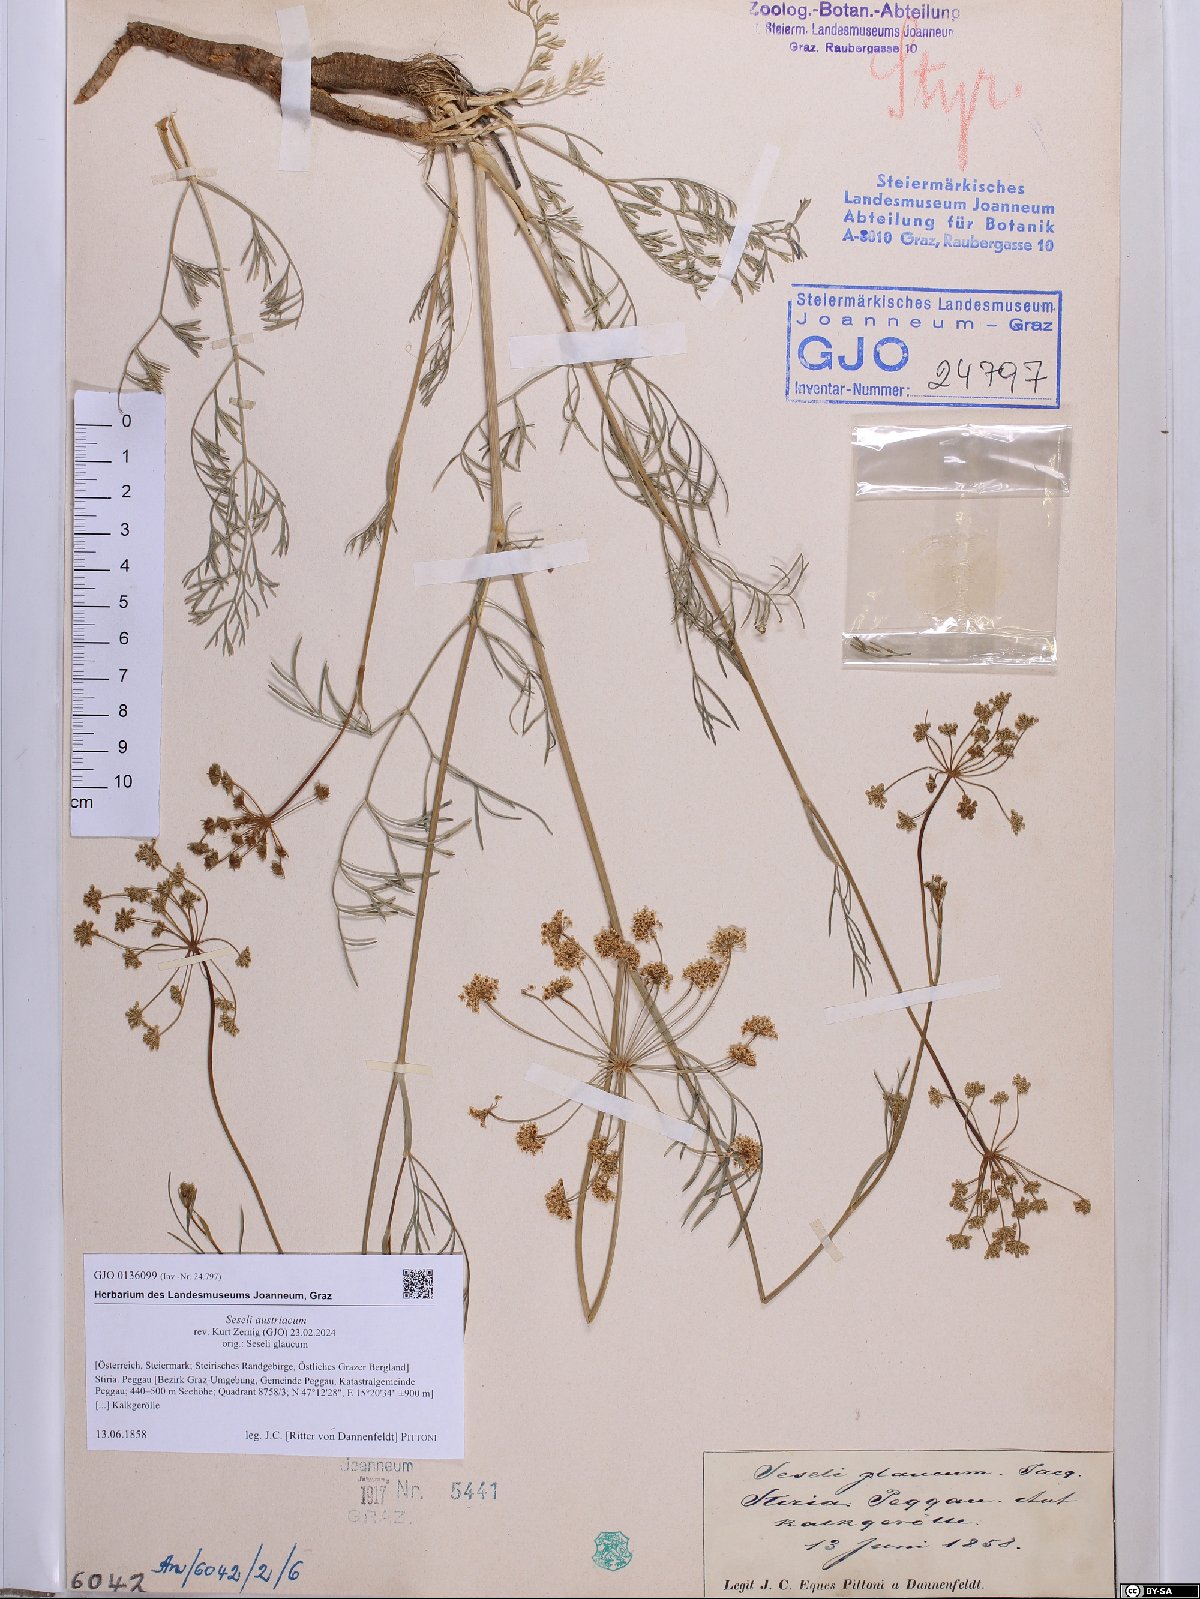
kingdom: Plantae
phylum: Tracheophyta
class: Magnoliopsida
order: Apiales
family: Apiaceae
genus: Seseli
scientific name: Seseli austriacum
